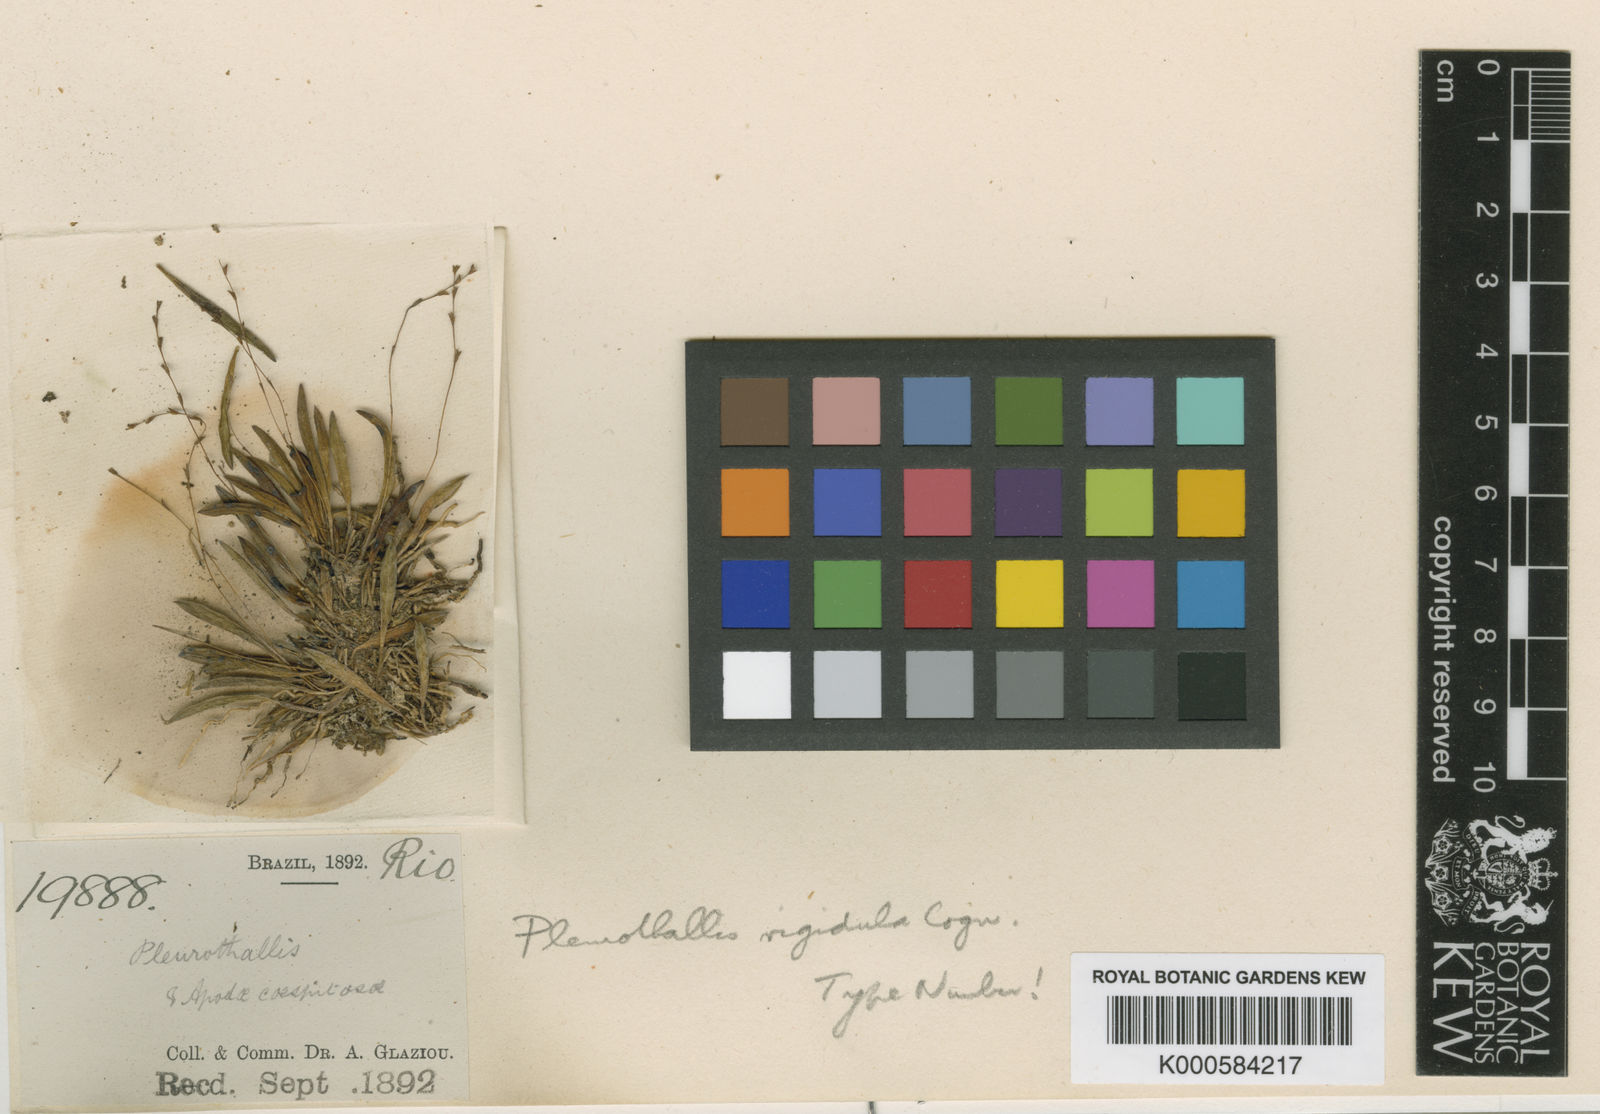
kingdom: Plantae
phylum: Tracheophyta
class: Liliopsida
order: Asparagales
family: Orchidaceae
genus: Anathallis
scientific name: Anathallis linearifolia
